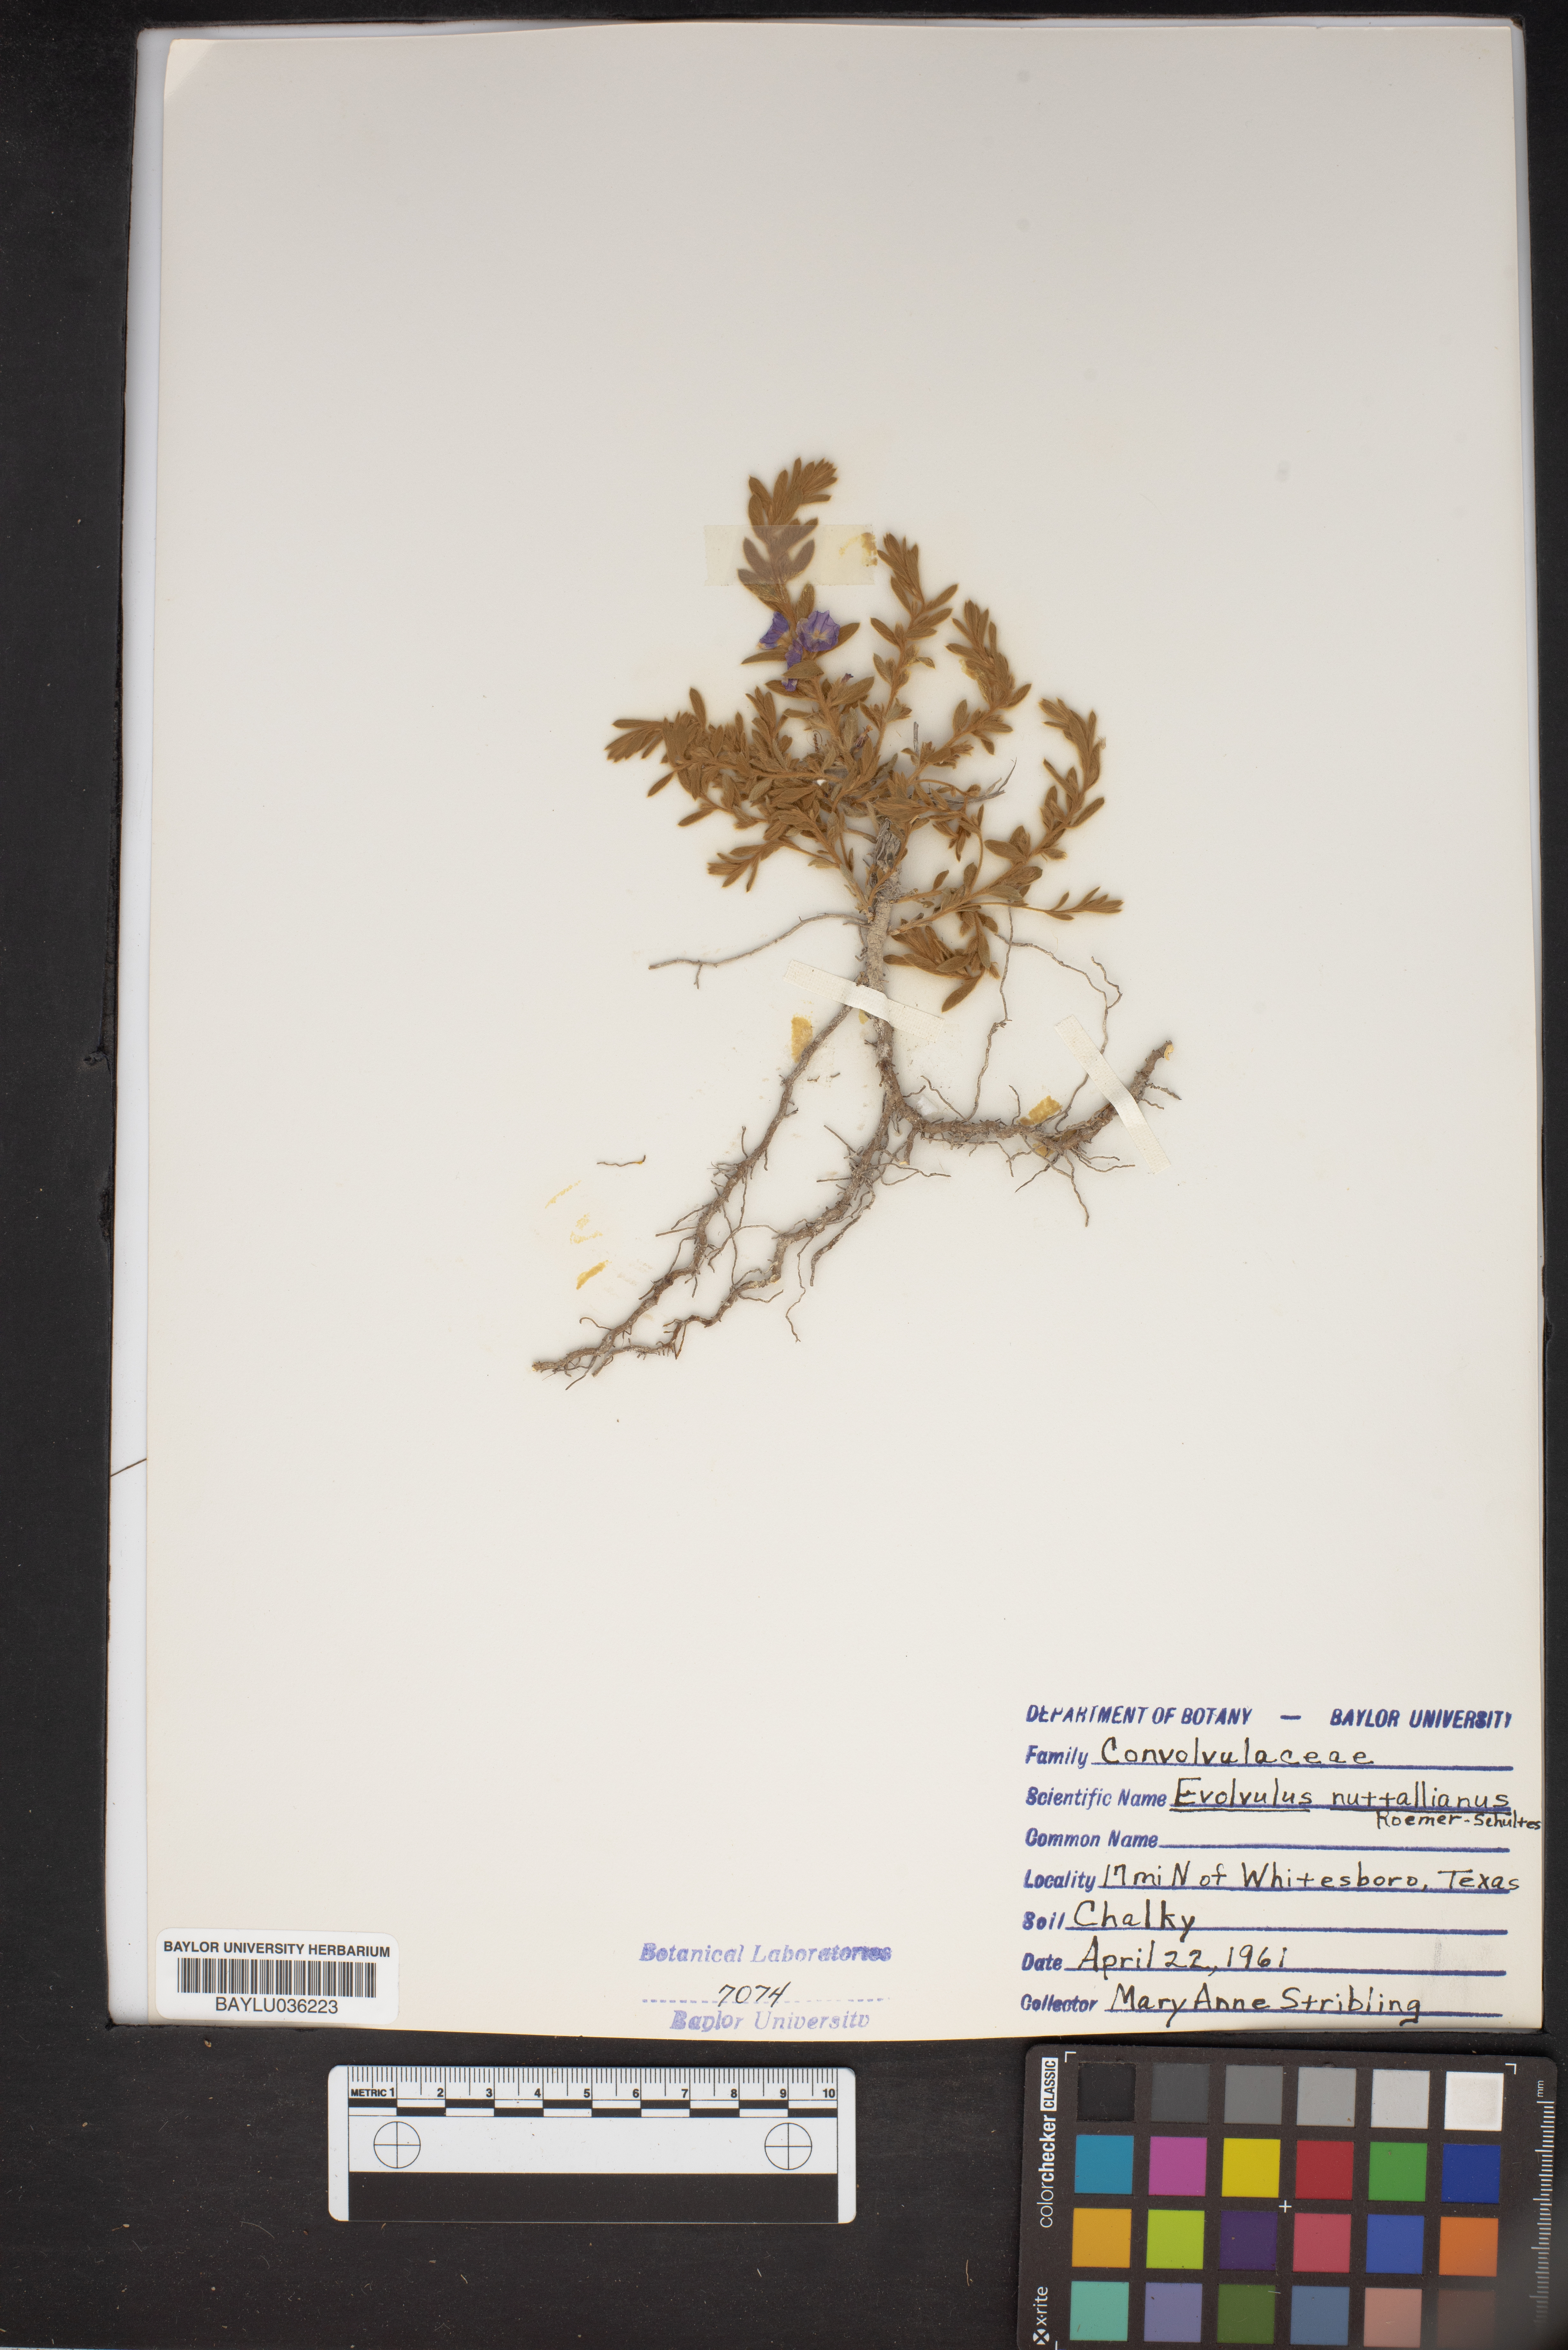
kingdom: Plantae
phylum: Tracheophyta
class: Magnoliopsida
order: Solanales
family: Convolvulaceae
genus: Evolvulus
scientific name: Evolvulus nuttallianus
